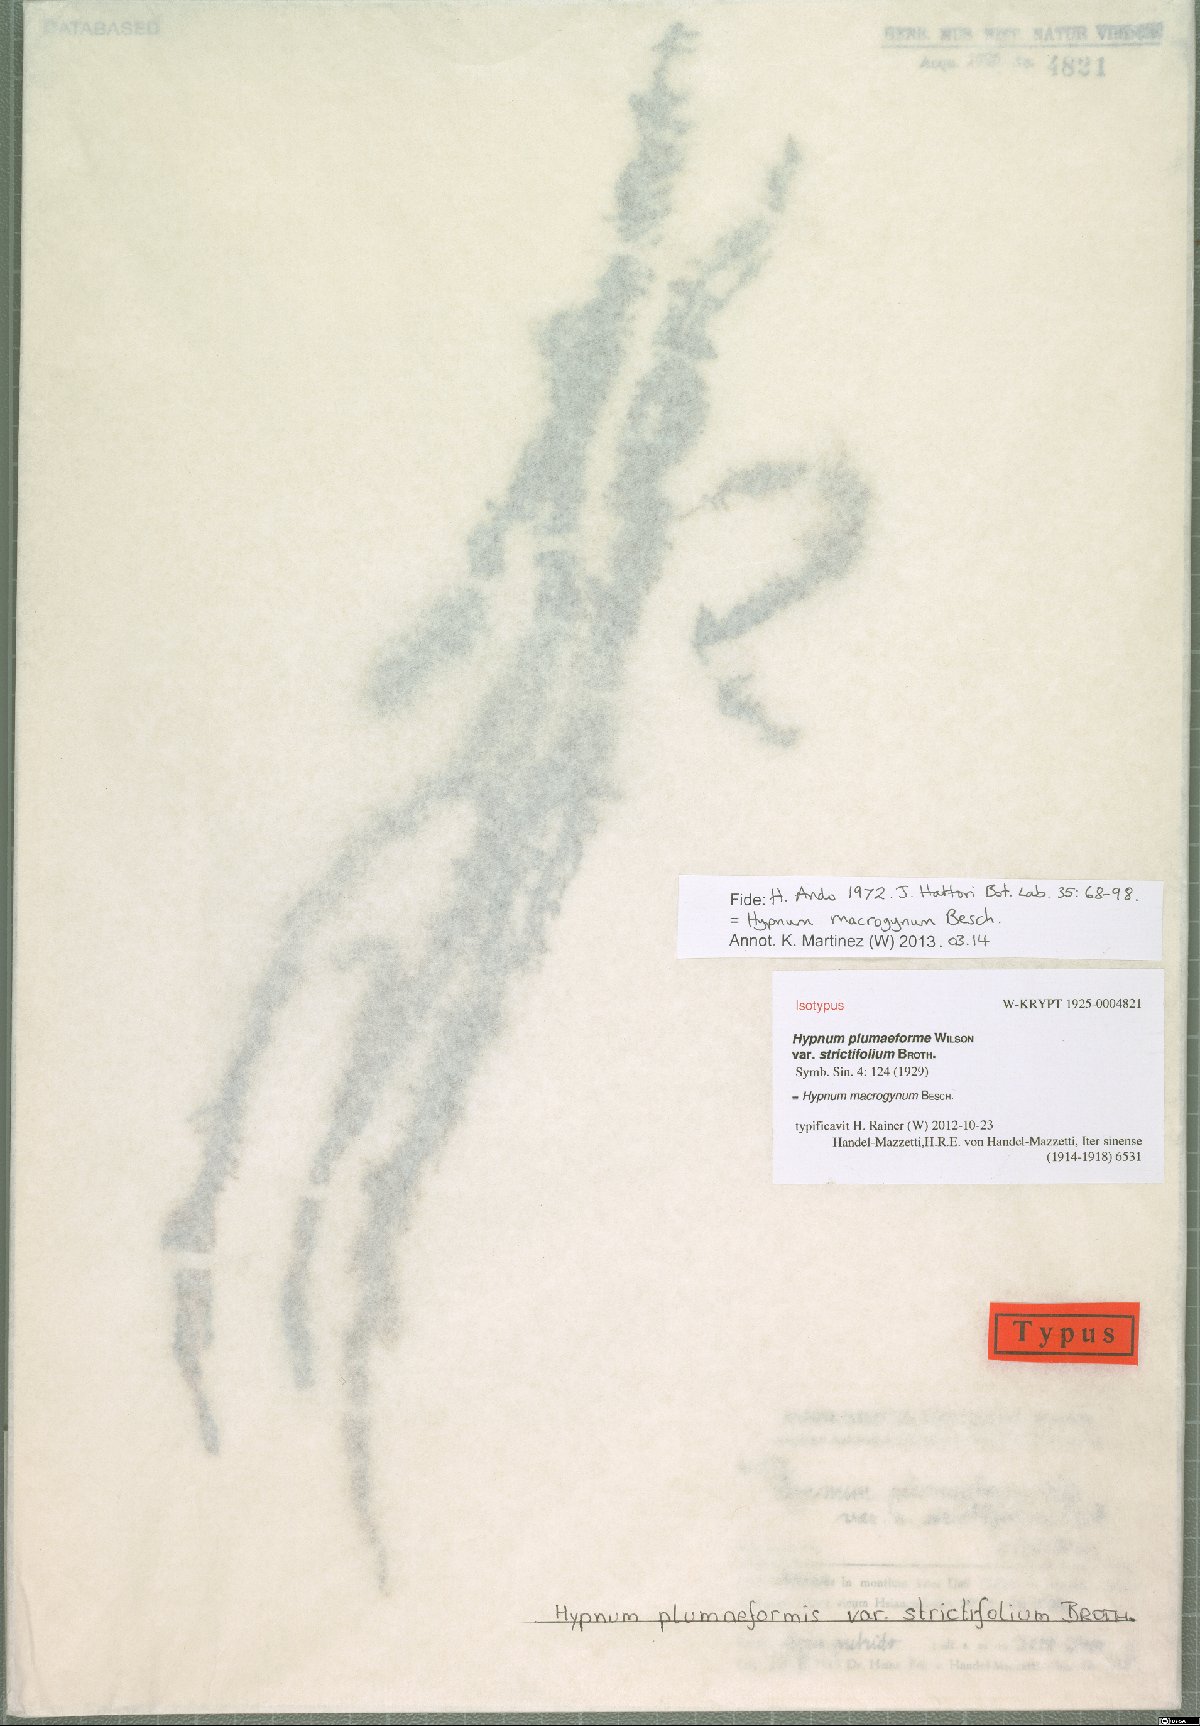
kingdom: Plantae
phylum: Bryophyta
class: Bryopsida
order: Hypnales
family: Pylaisiaceae
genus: Calohypnum
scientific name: Calohypnum macrogynum
